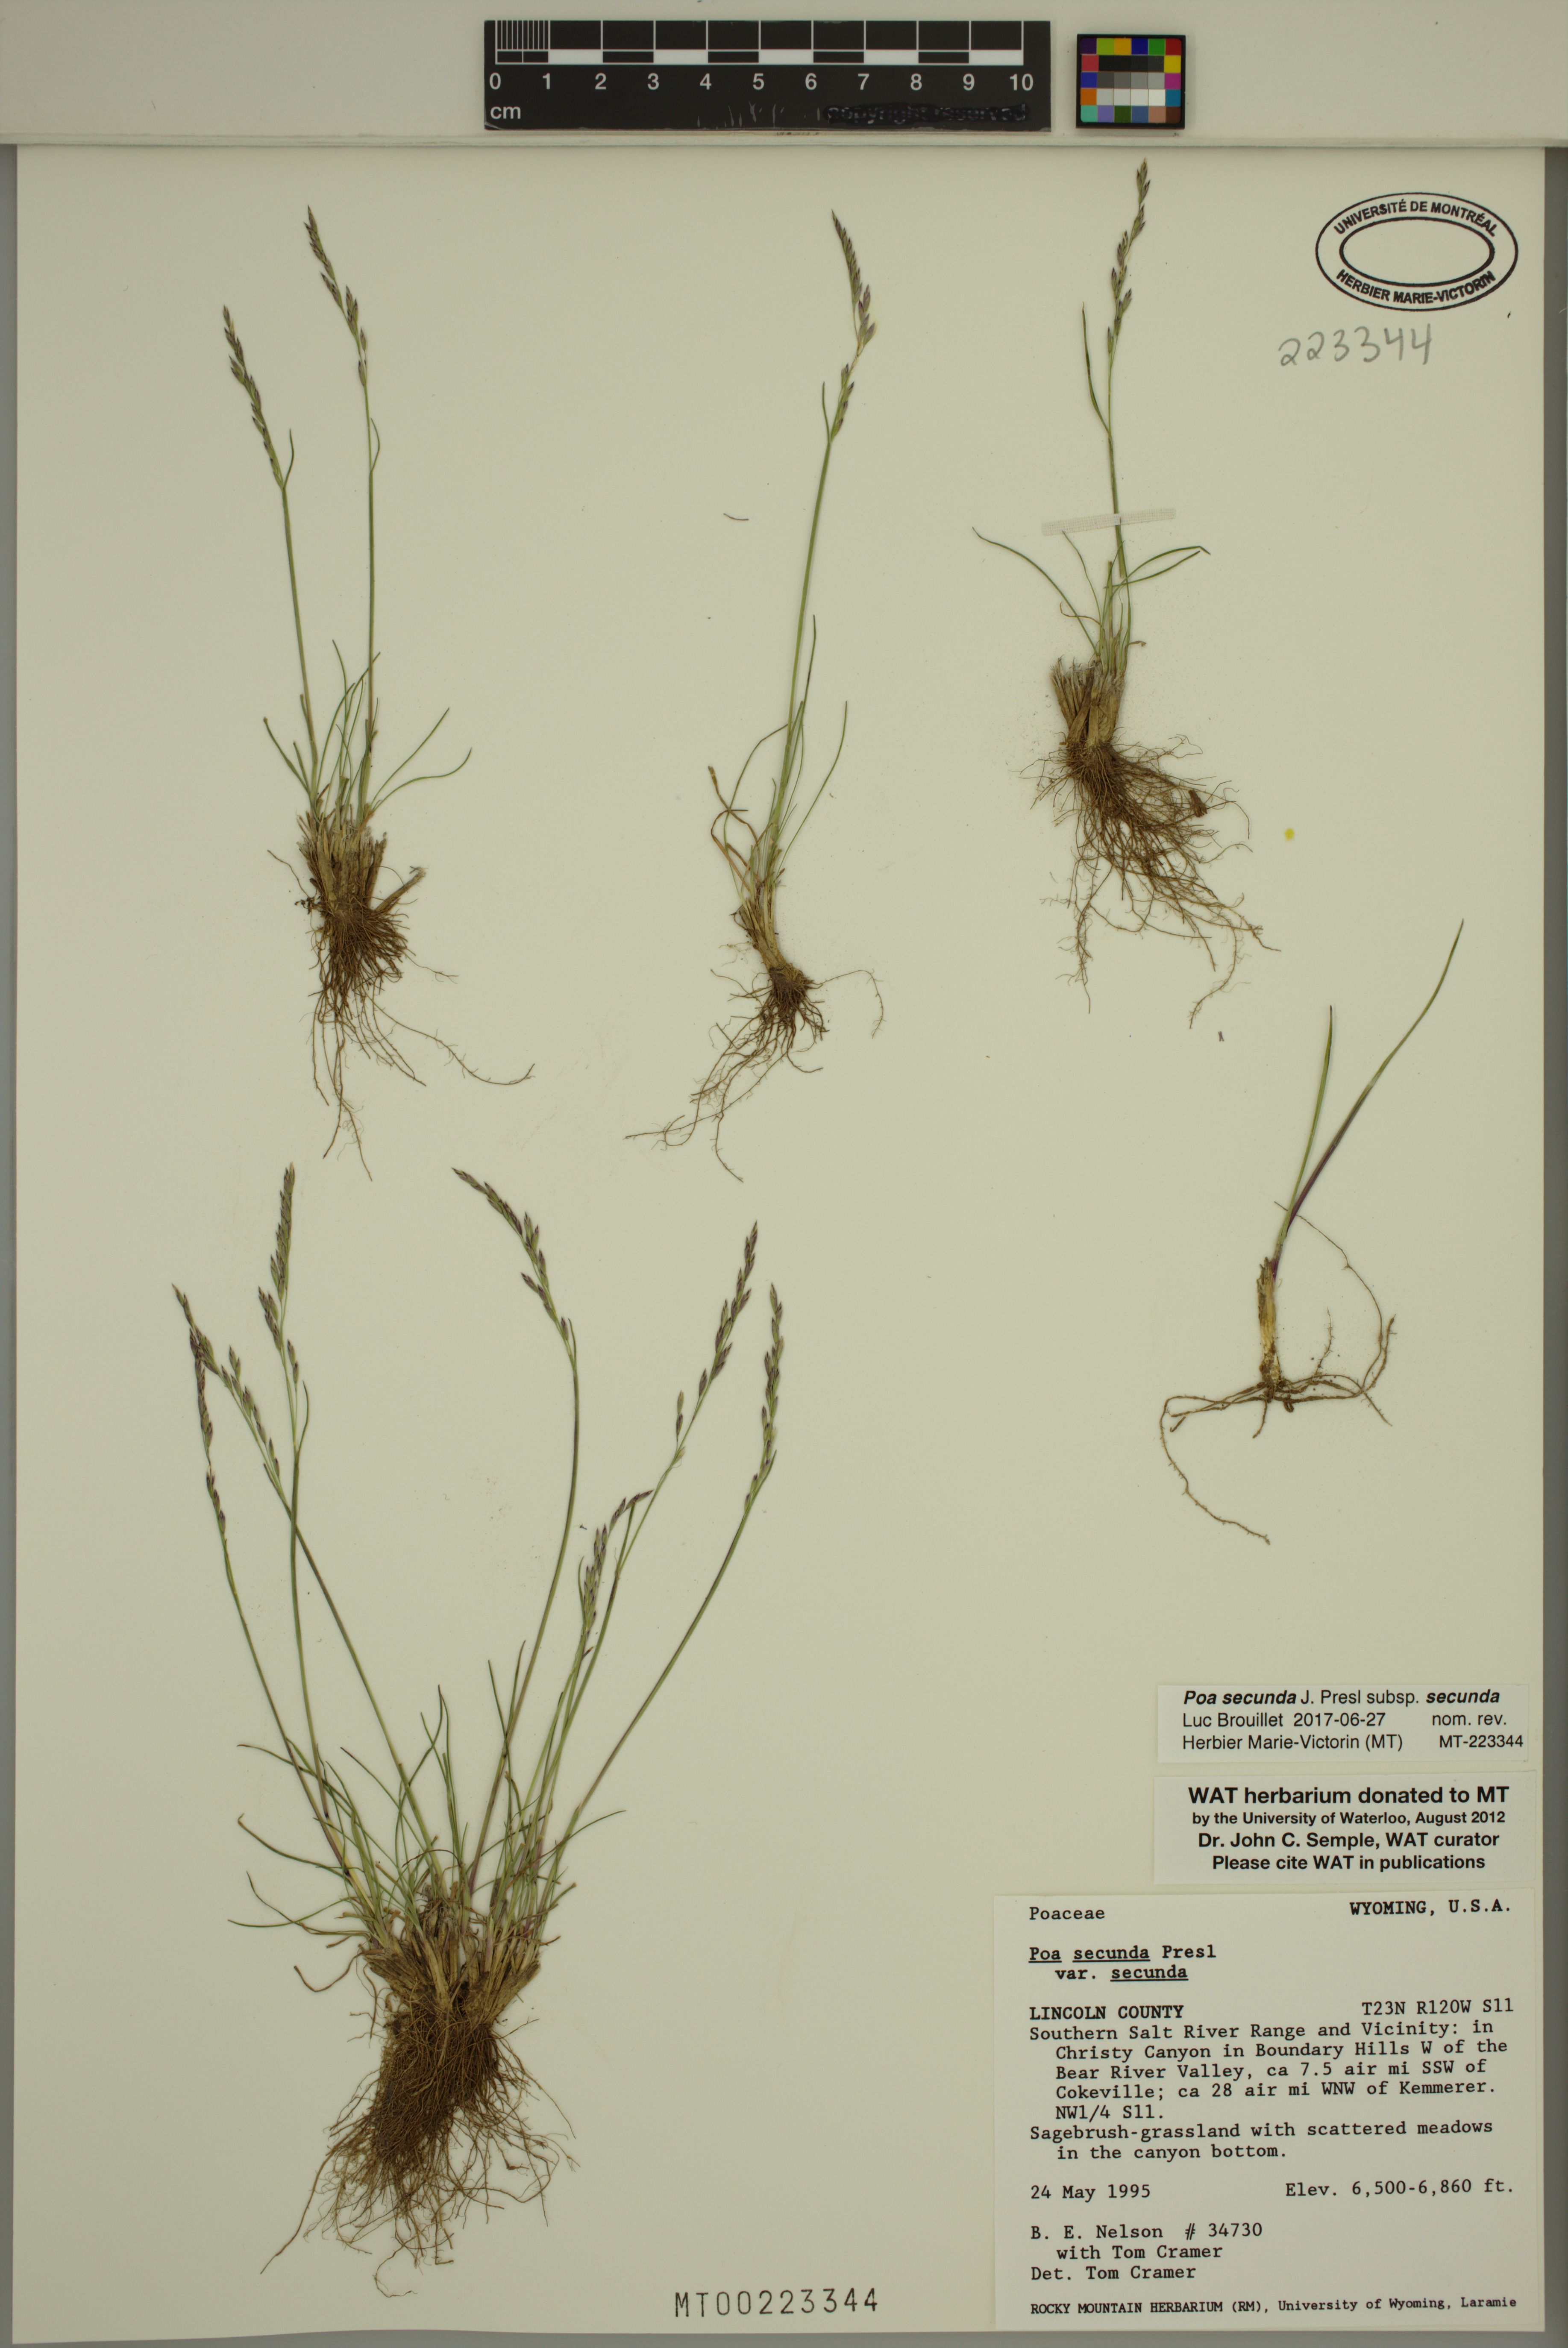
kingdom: Plantae
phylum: Tracheophyta
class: Liliopsida
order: Poales
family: Poaceae
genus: Poa
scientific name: Poa secunda
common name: Sandberg bluegrass
